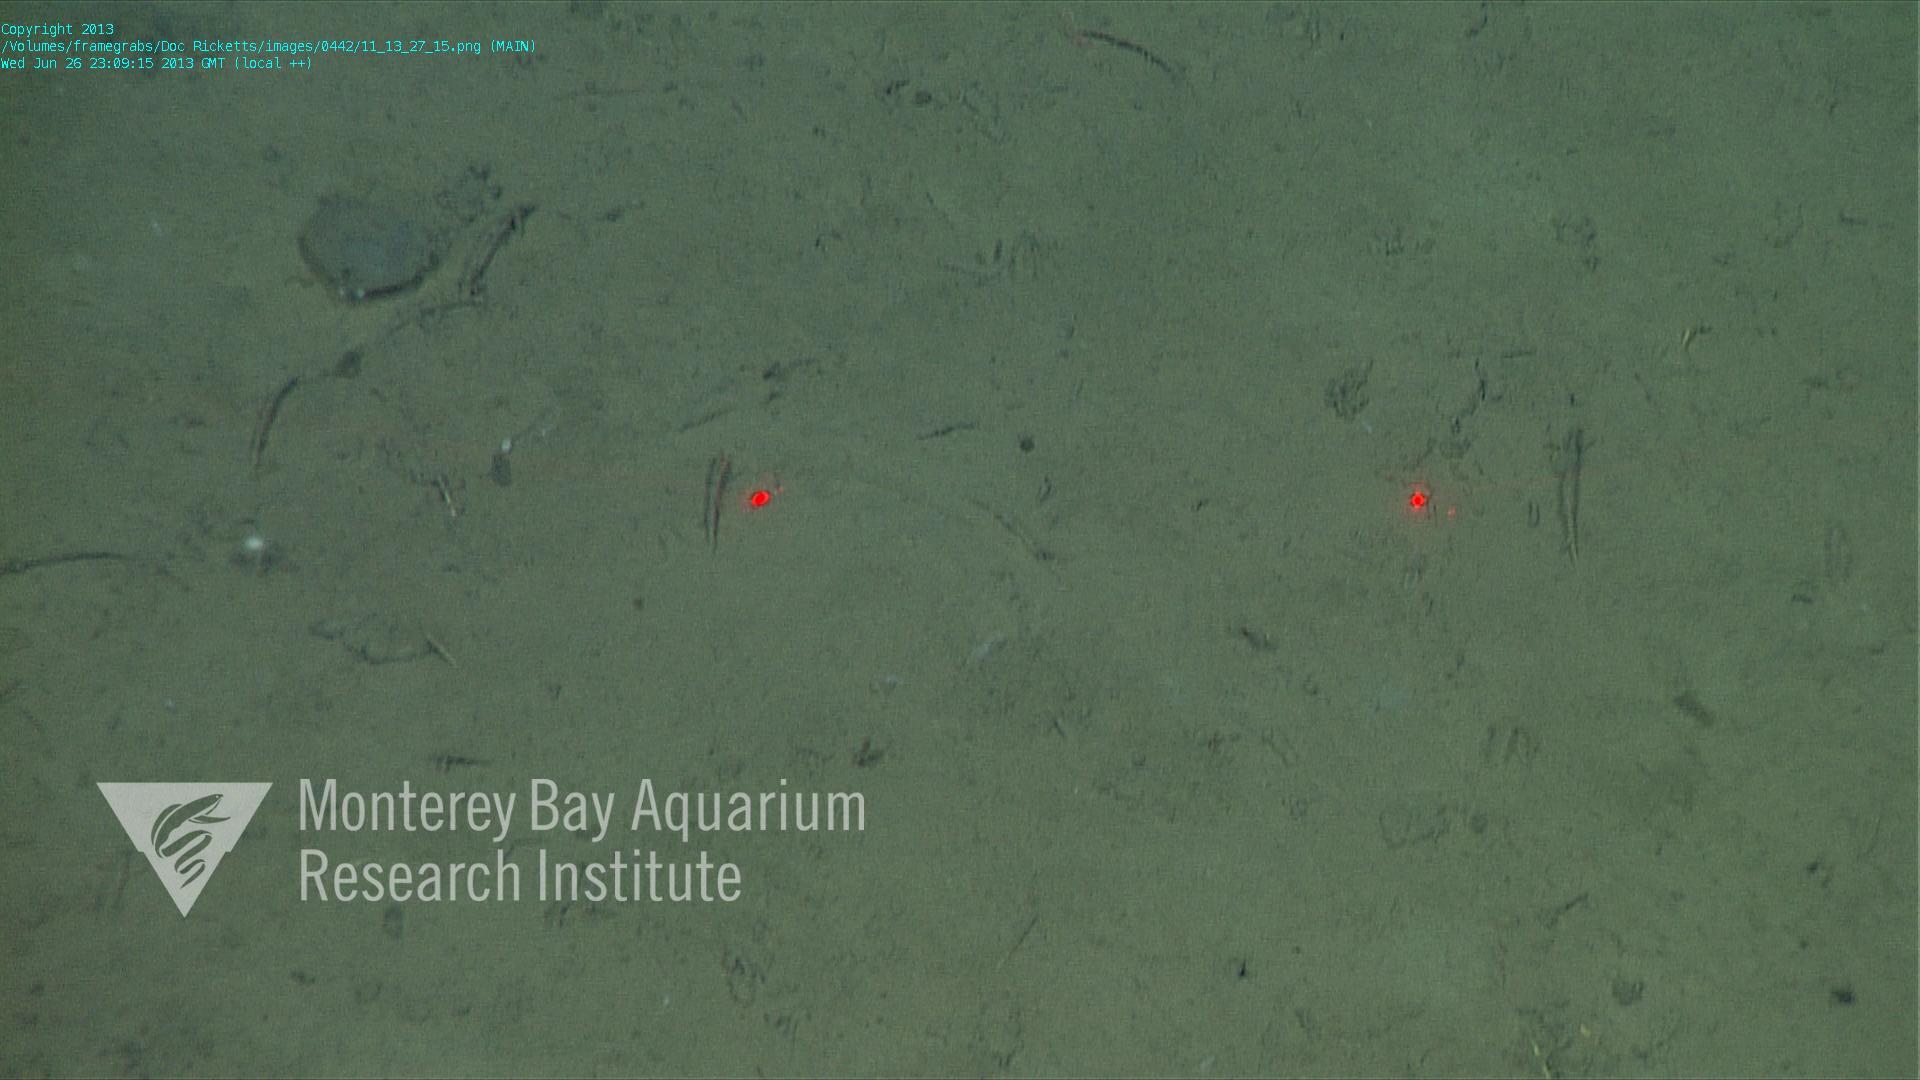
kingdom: Animalia
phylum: Porifera
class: Demospongiae
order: Poecilosclerida
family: Cladorhizidae
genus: Cladorhiza
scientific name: Cladorhiza
